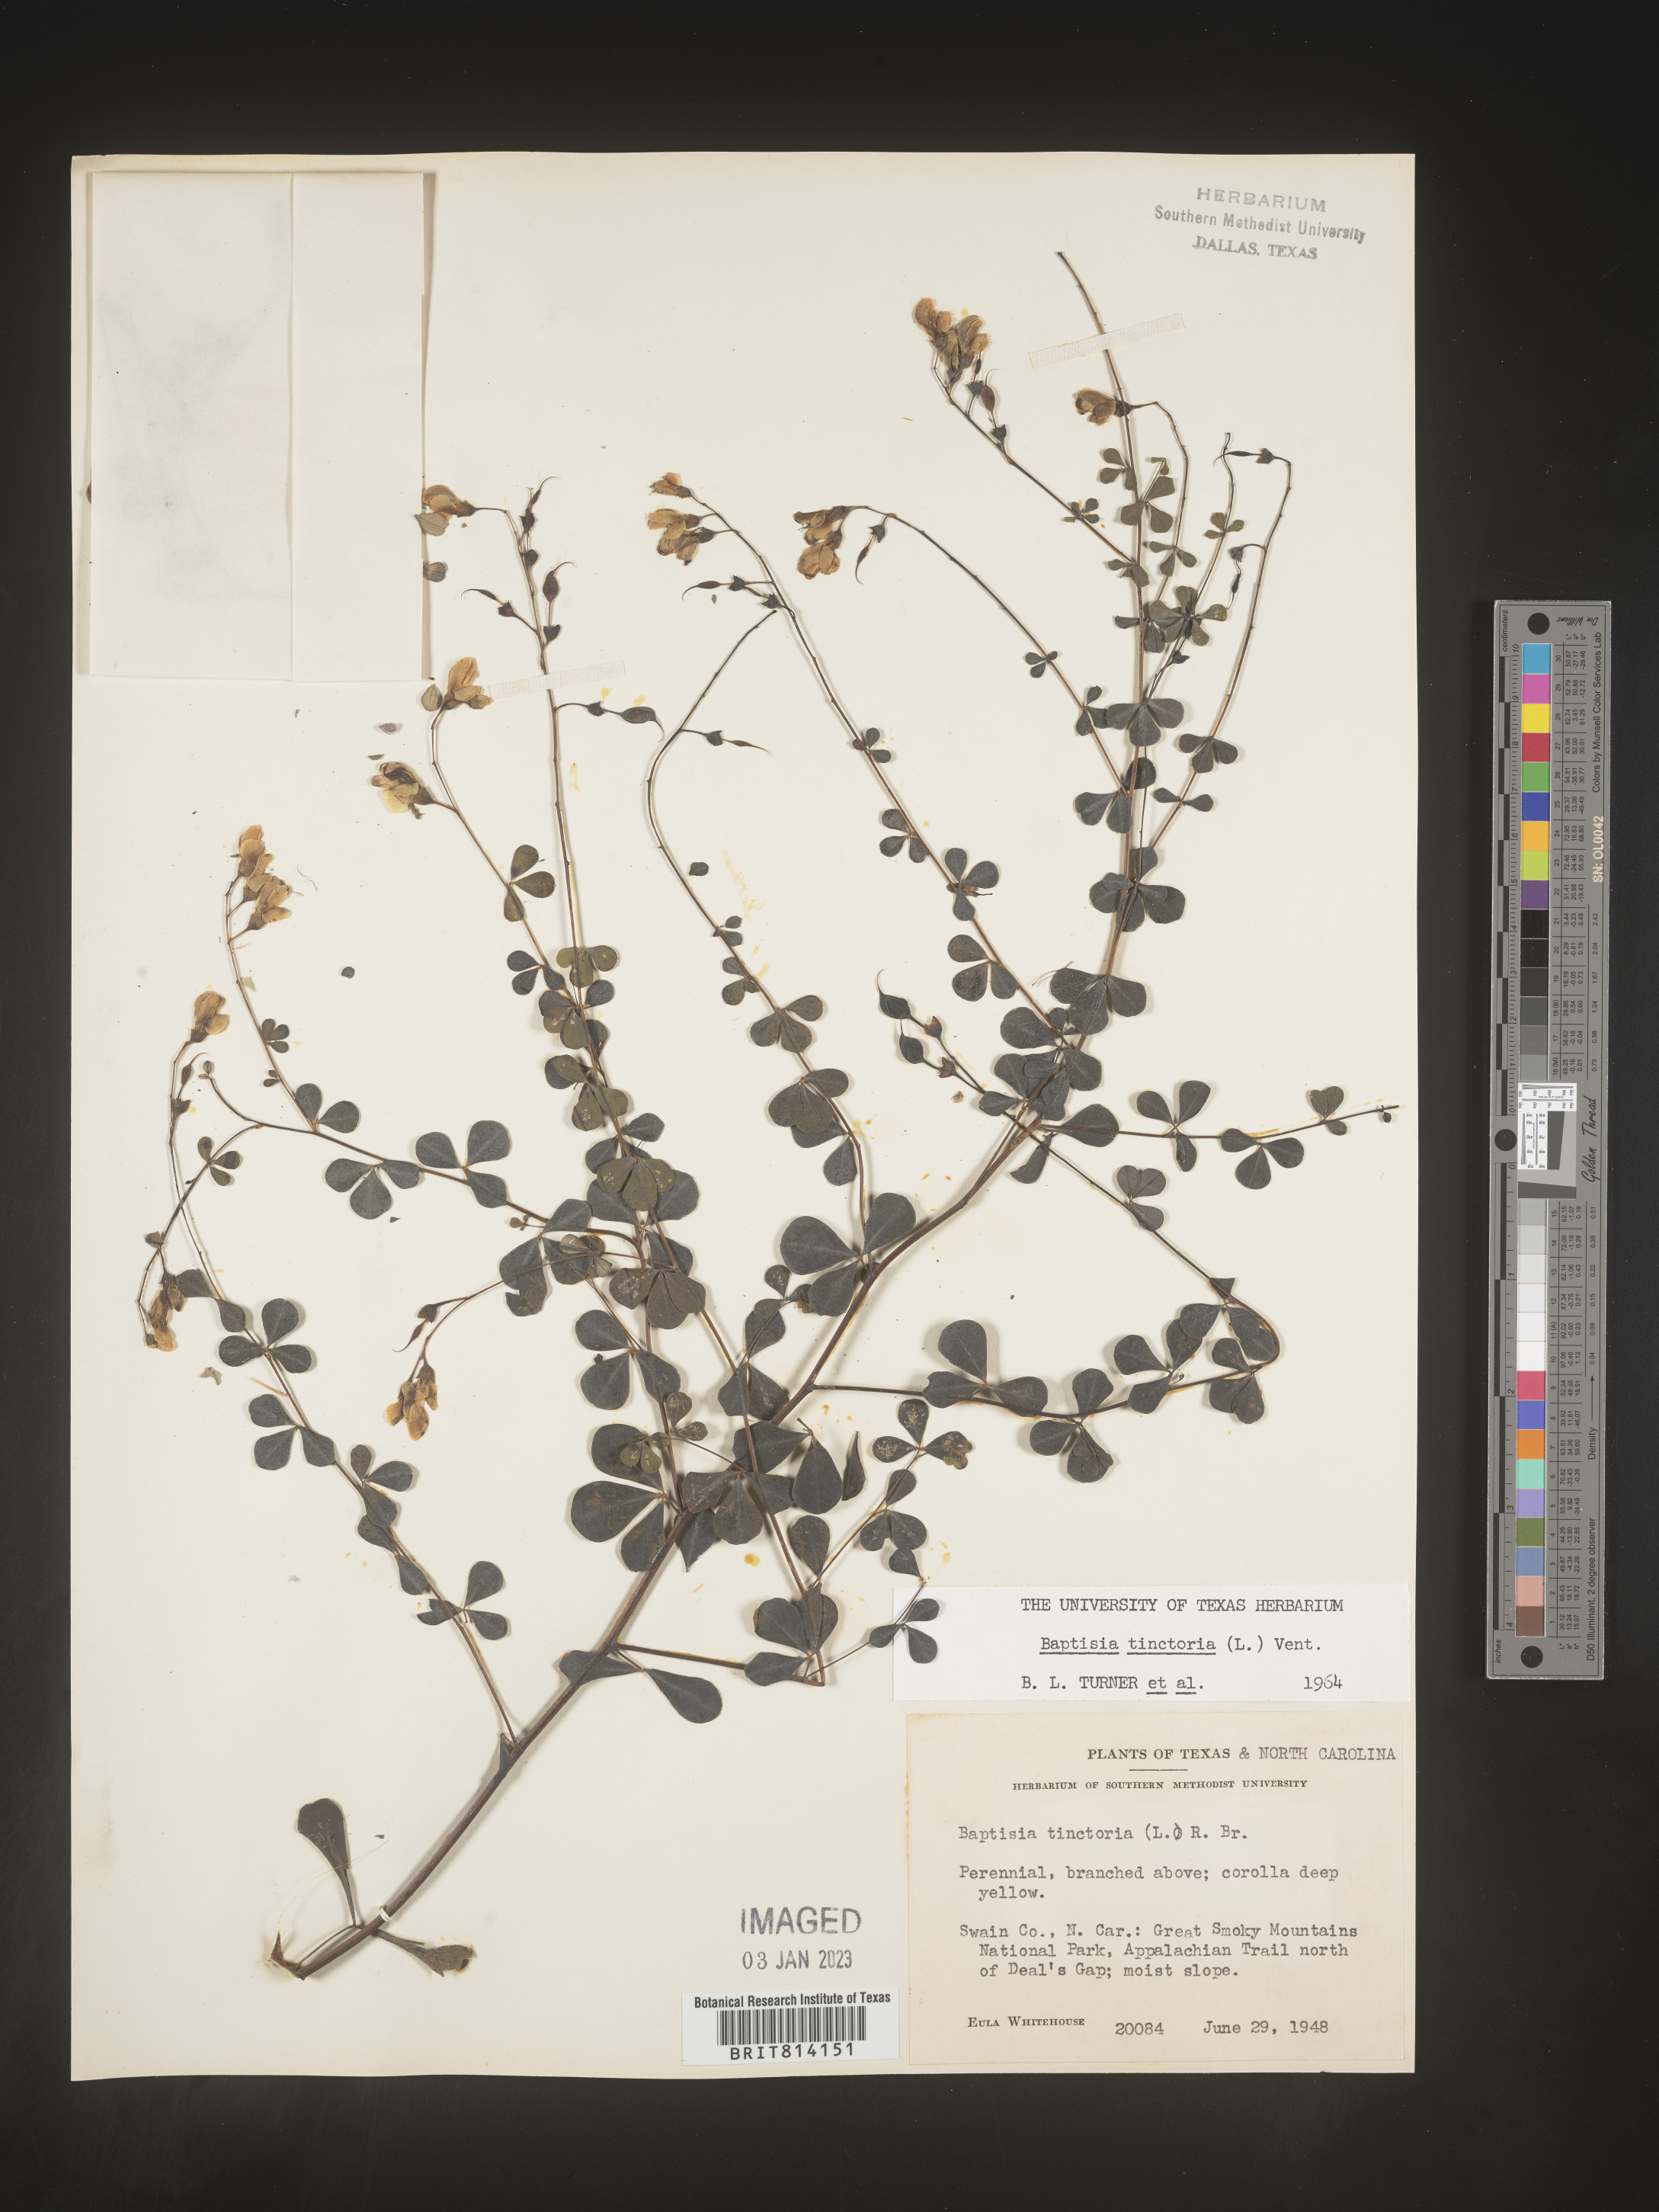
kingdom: Plantae
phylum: Tracheophyta
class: Magnoliopsida
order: Fabales
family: Fabaceae
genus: Baptisia
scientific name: Baptisia tinctoria
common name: Wild indigo
